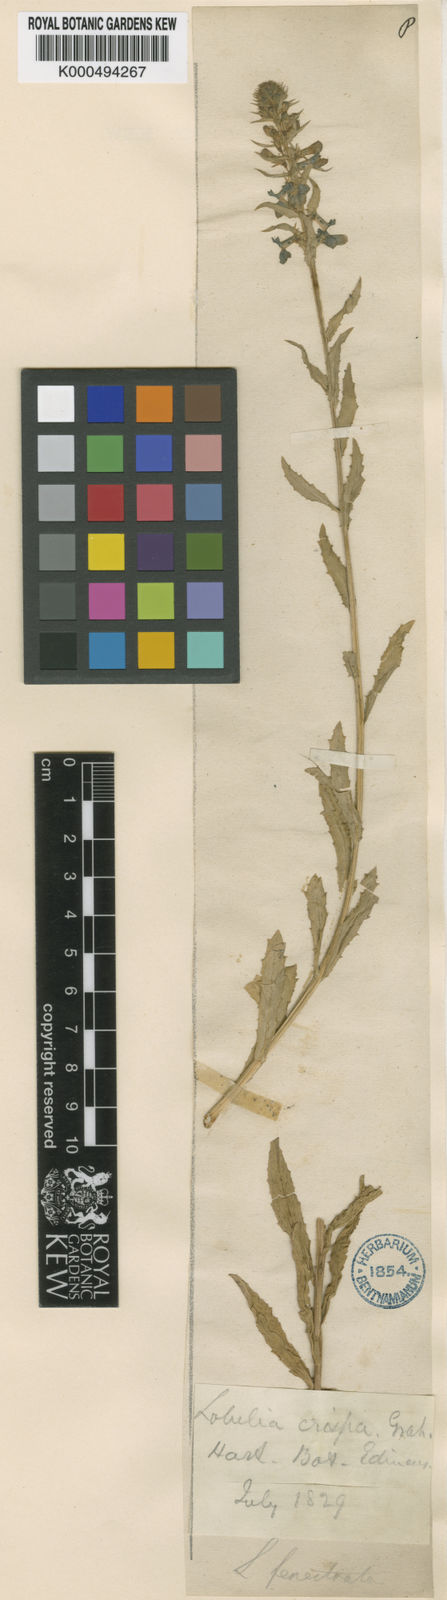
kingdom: Plantae
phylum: Tracheophyta
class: Magnoliopsida
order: Asterales
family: Campanulaceae
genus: Lobelia
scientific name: Lobelia fenestralis
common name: Leafy lobelia
